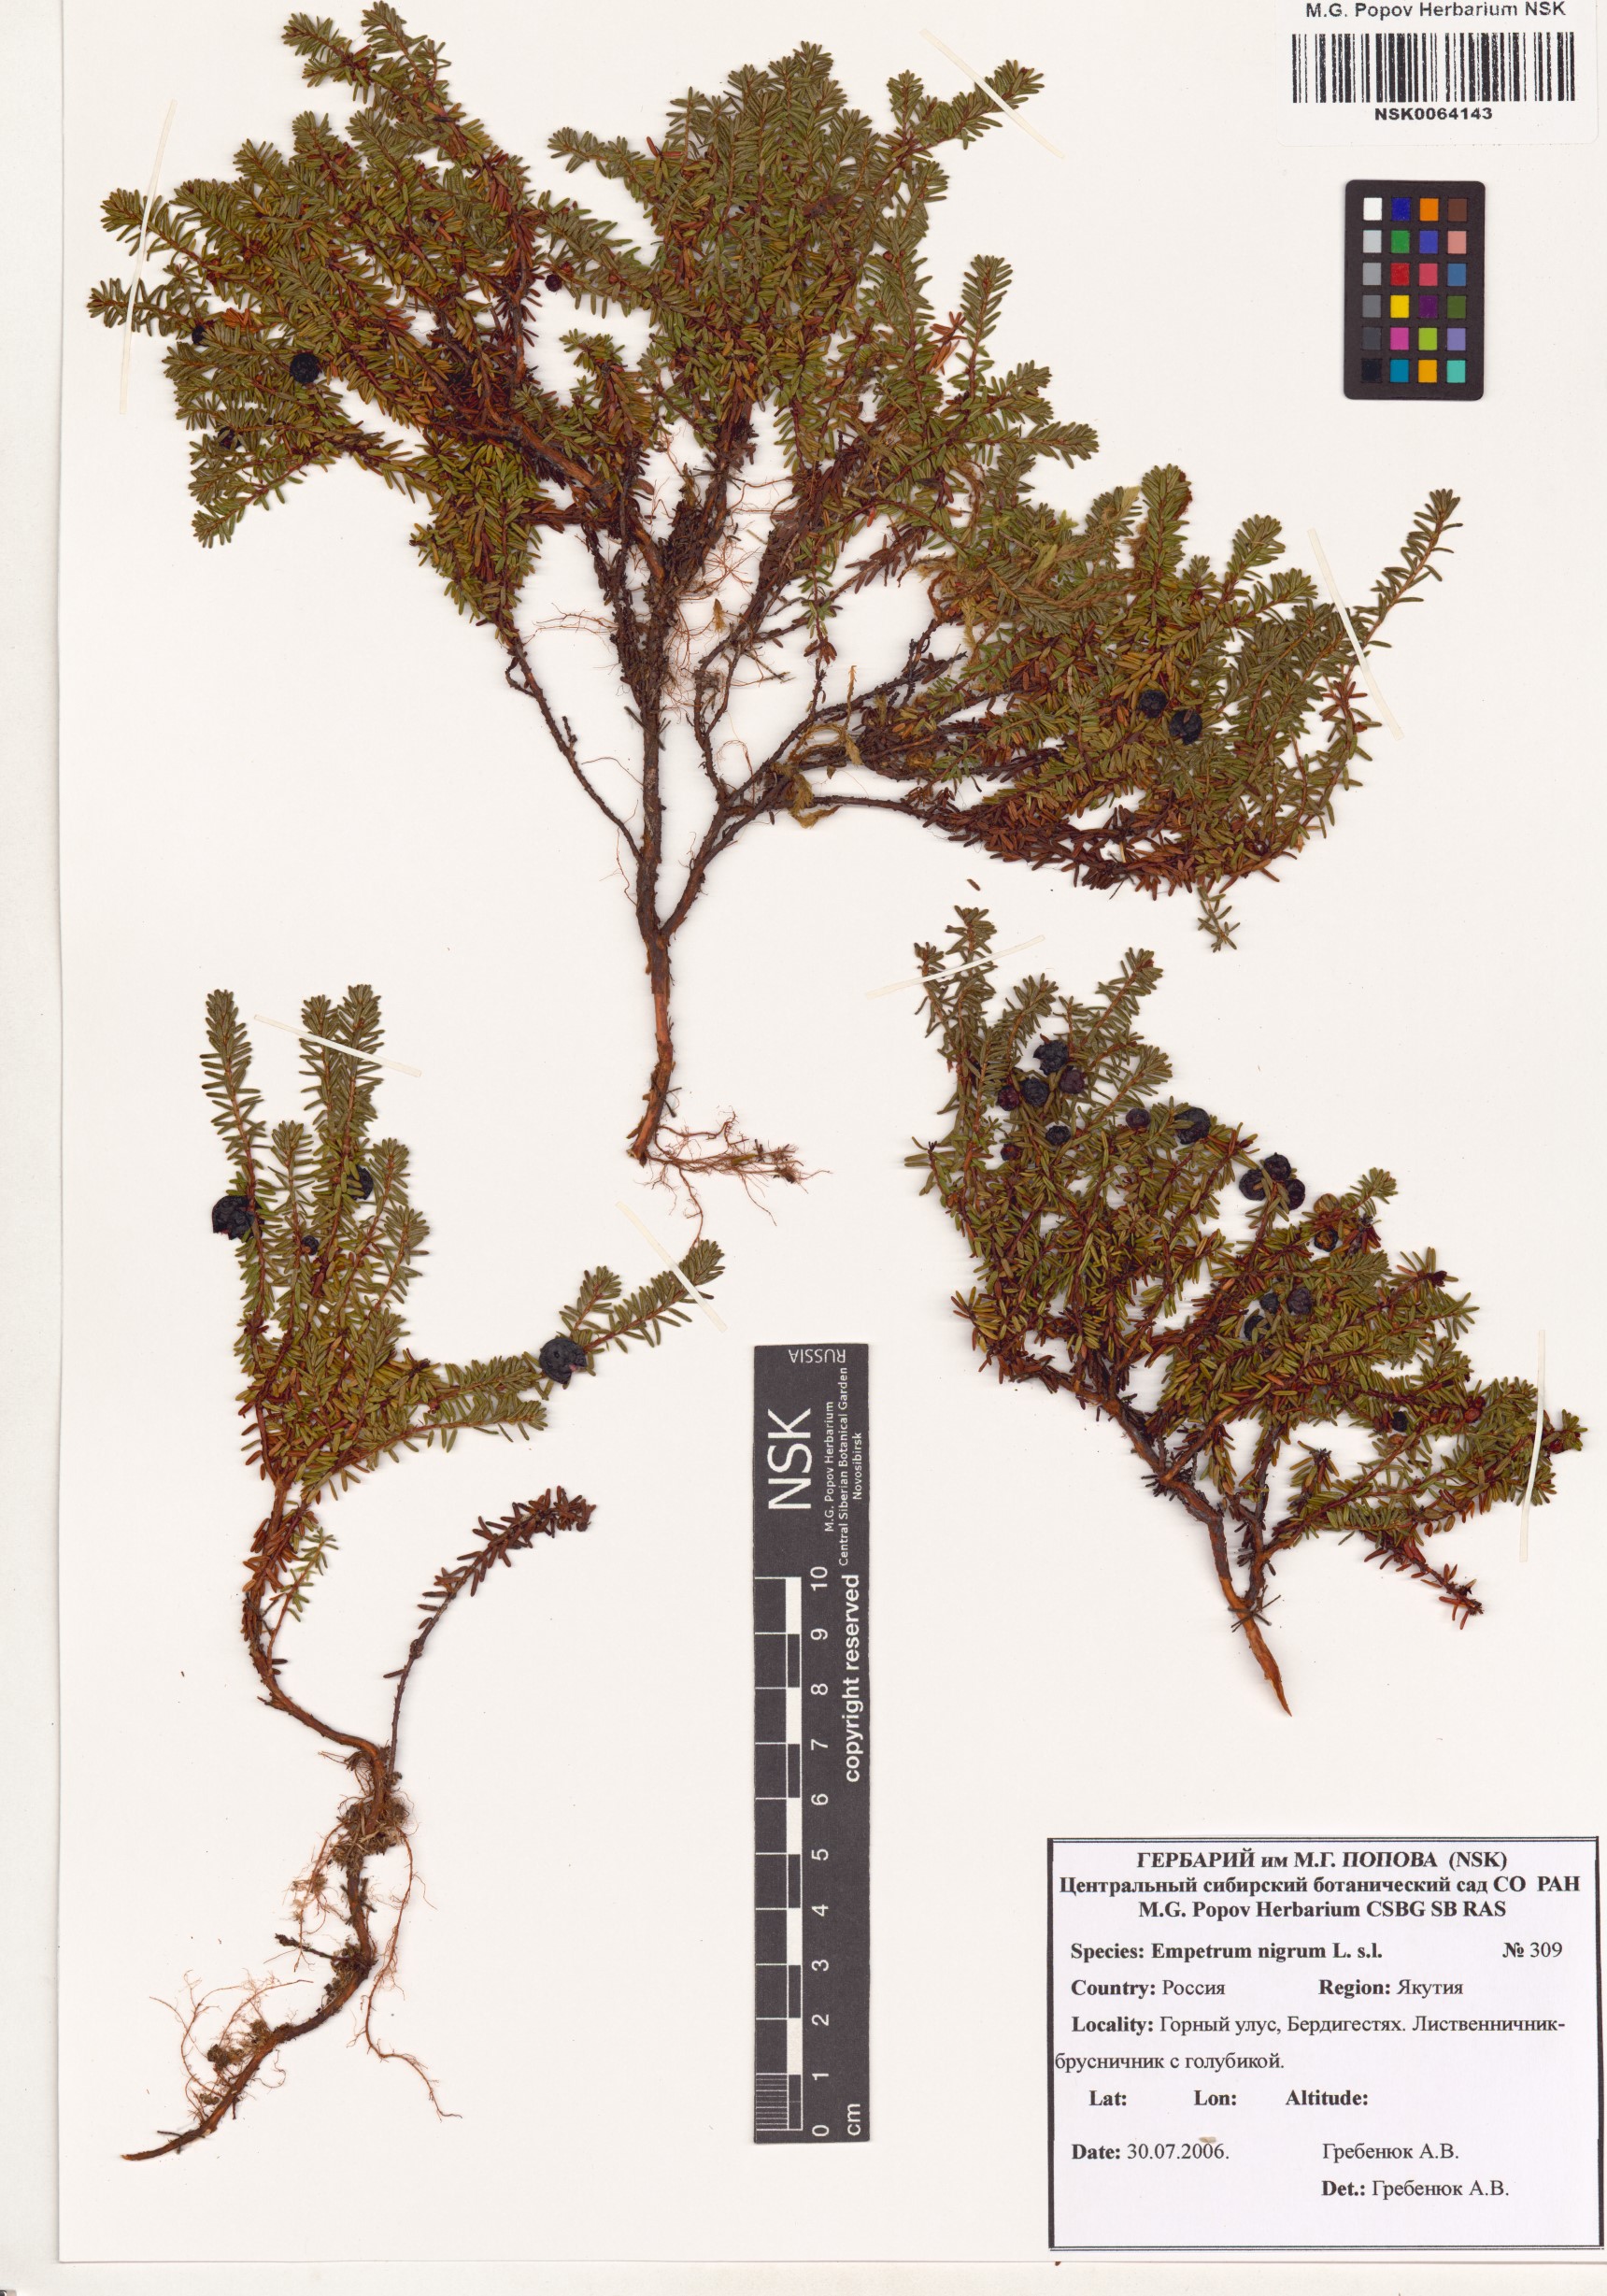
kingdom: Plantae
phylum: Tracheophyta
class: Magnoliopsida
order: Ericales
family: Ericaceae
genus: Empetrum
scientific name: Empetrum nigrum
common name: Black crowberry
